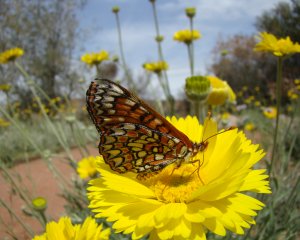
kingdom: Animalia
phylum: Arthropoda
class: Insecta
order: Lepidoptera
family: Nymphalidae
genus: Occidryas
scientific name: Occidryas chalcedona
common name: Chalcedon Checkerspot
